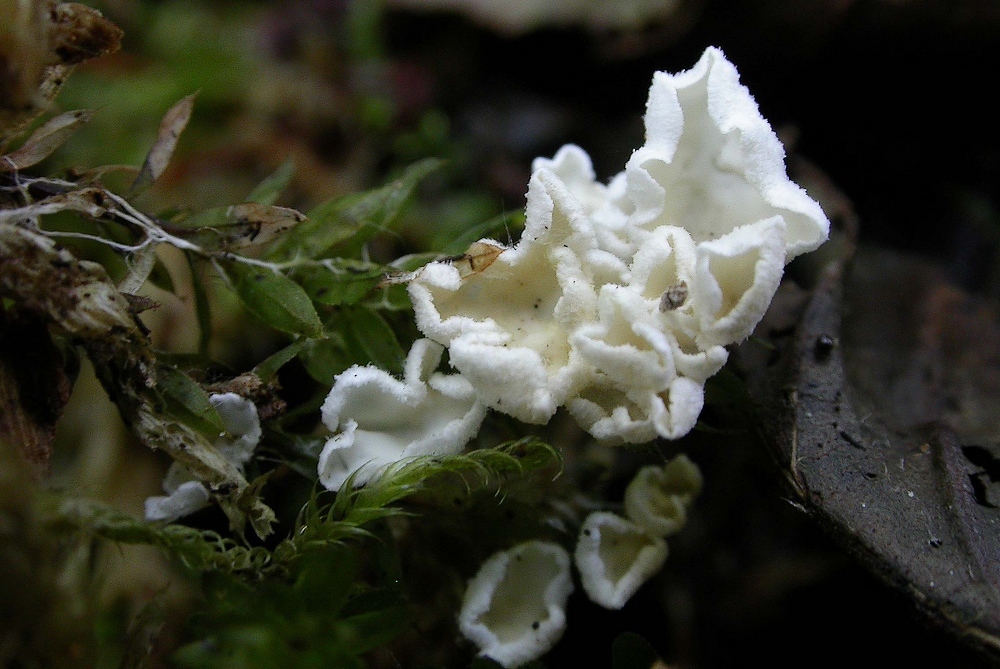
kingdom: Fungi
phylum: Basidiomycota
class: Agaricomycetes
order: Agaricales
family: Tricholomataceae
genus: Rimbachia
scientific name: Rimbachia arachnoidea
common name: Almindelig mosskål
